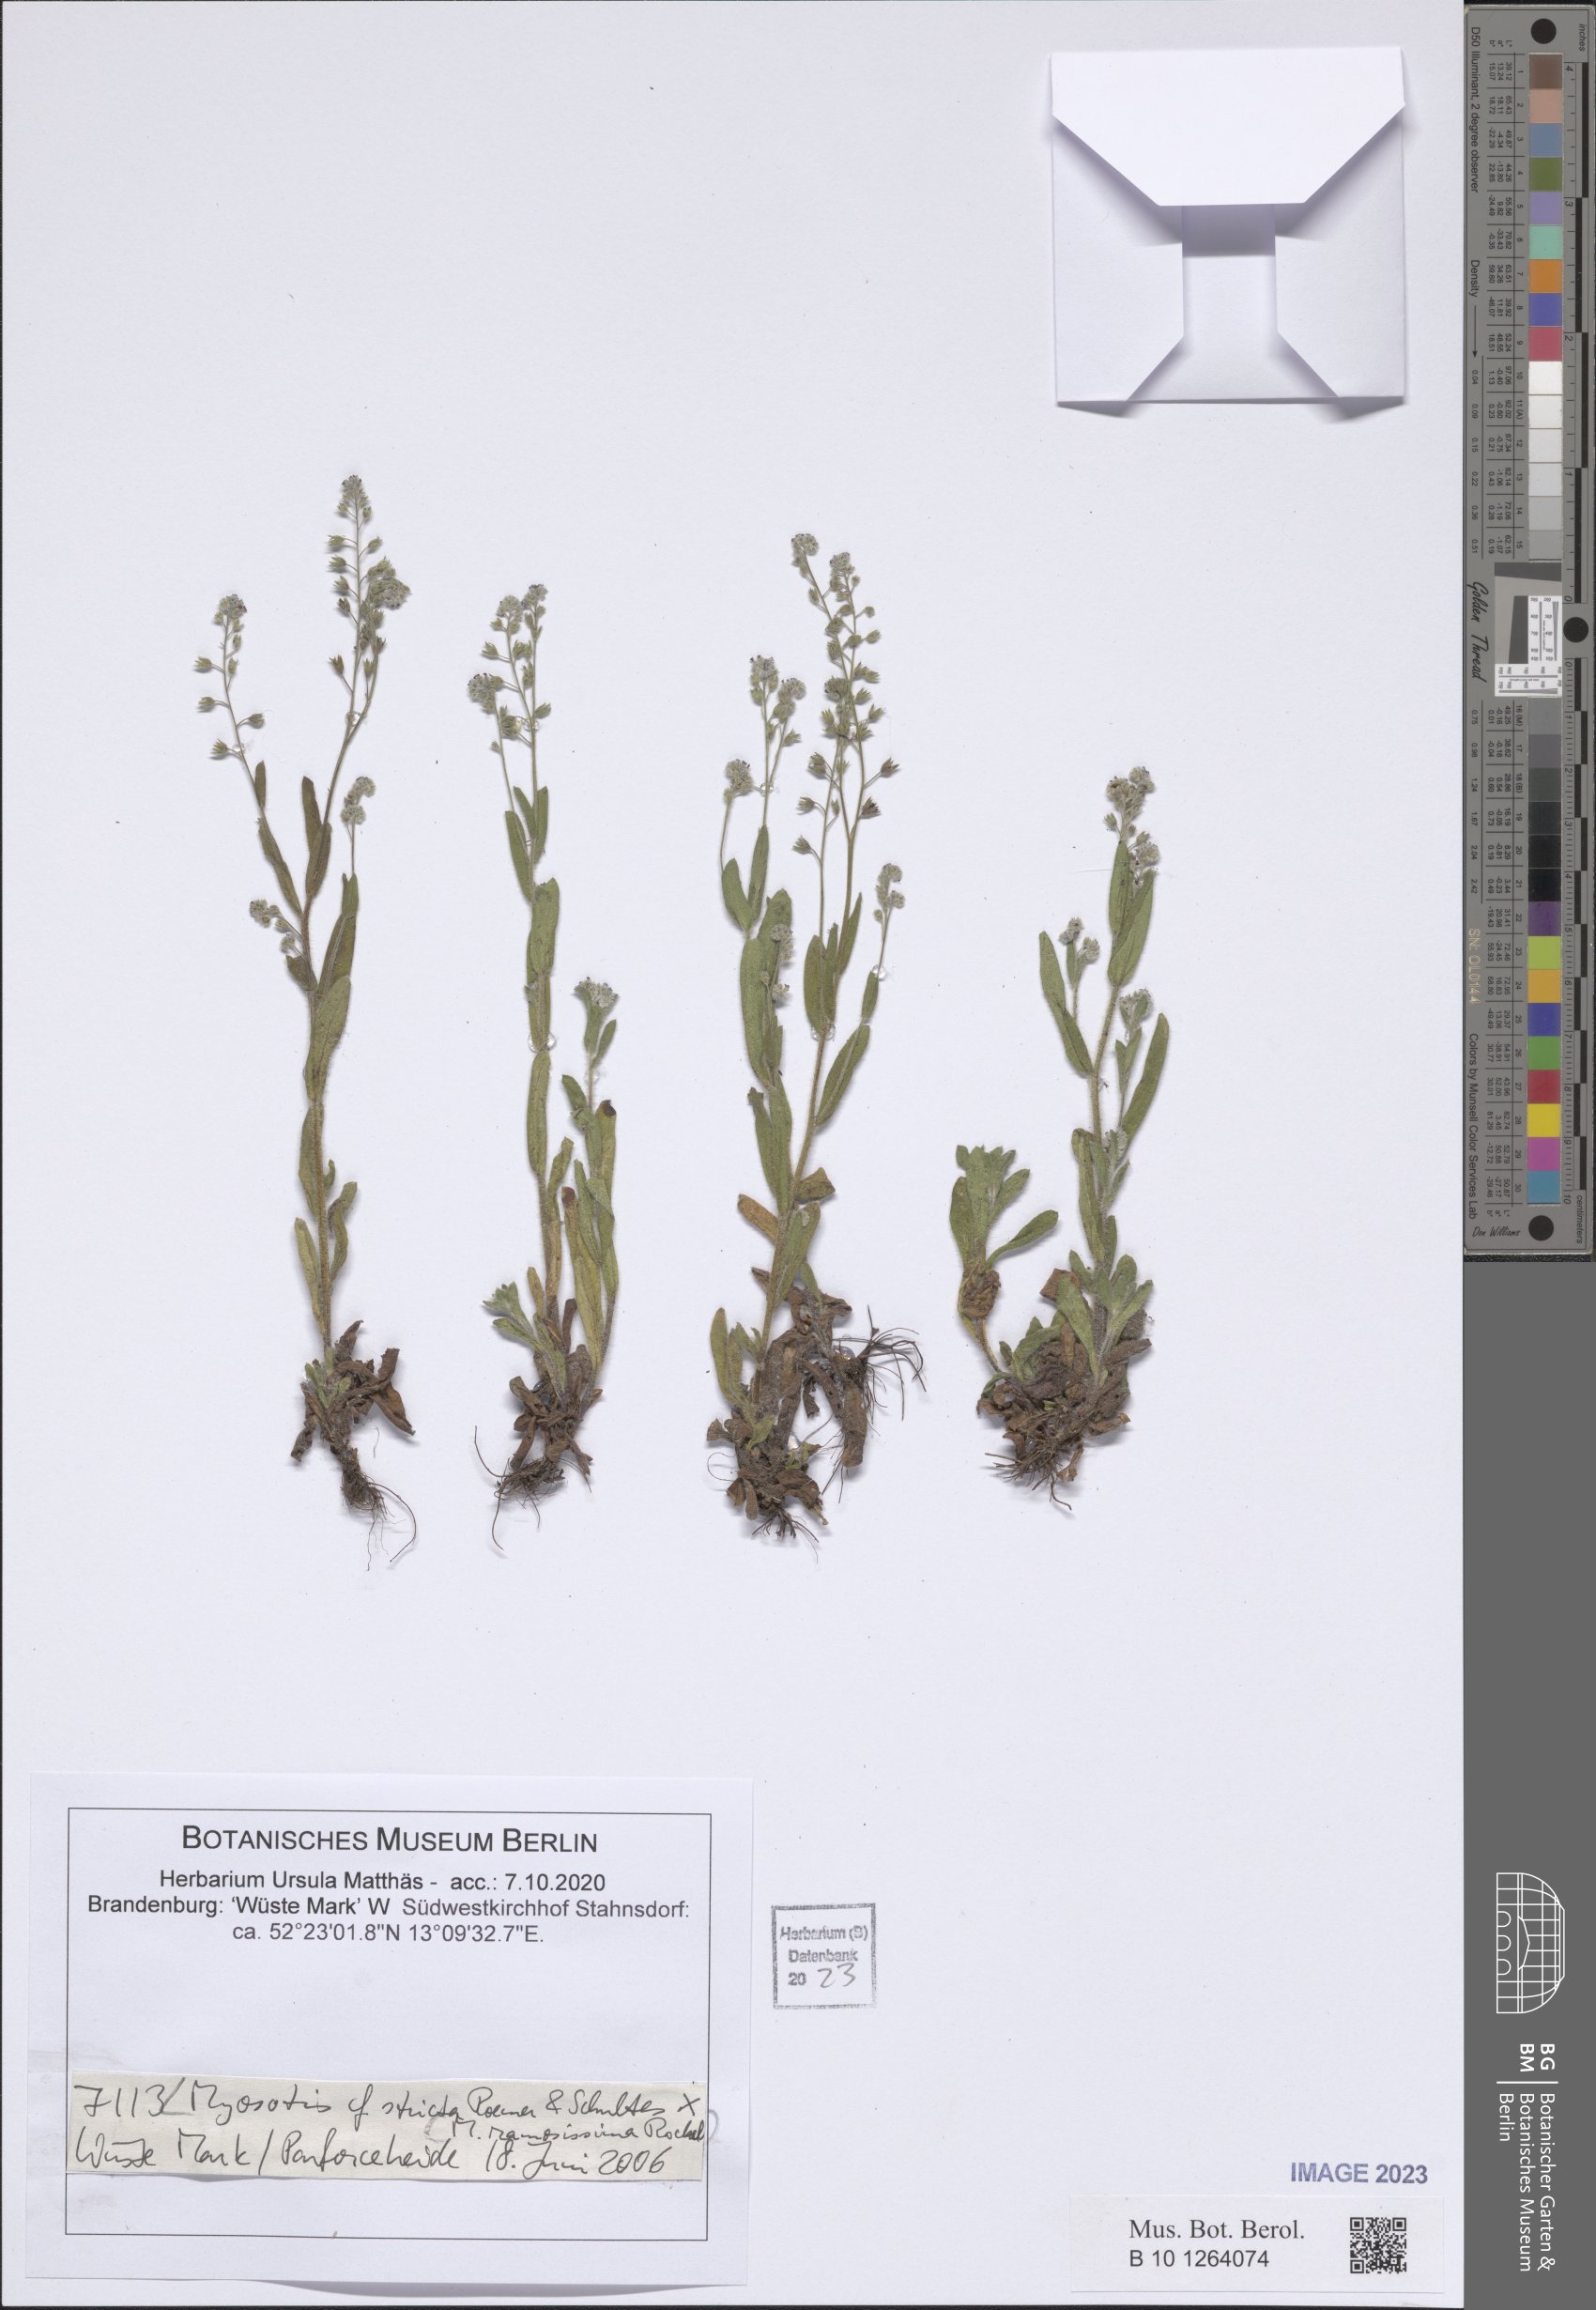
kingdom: Plantae
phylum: Tracheophyta
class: Magnoliopsida
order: Boraginales
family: Boraginaceae
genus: Myosotis
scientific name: Myosotis stricta
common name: Strict forget-me-not
